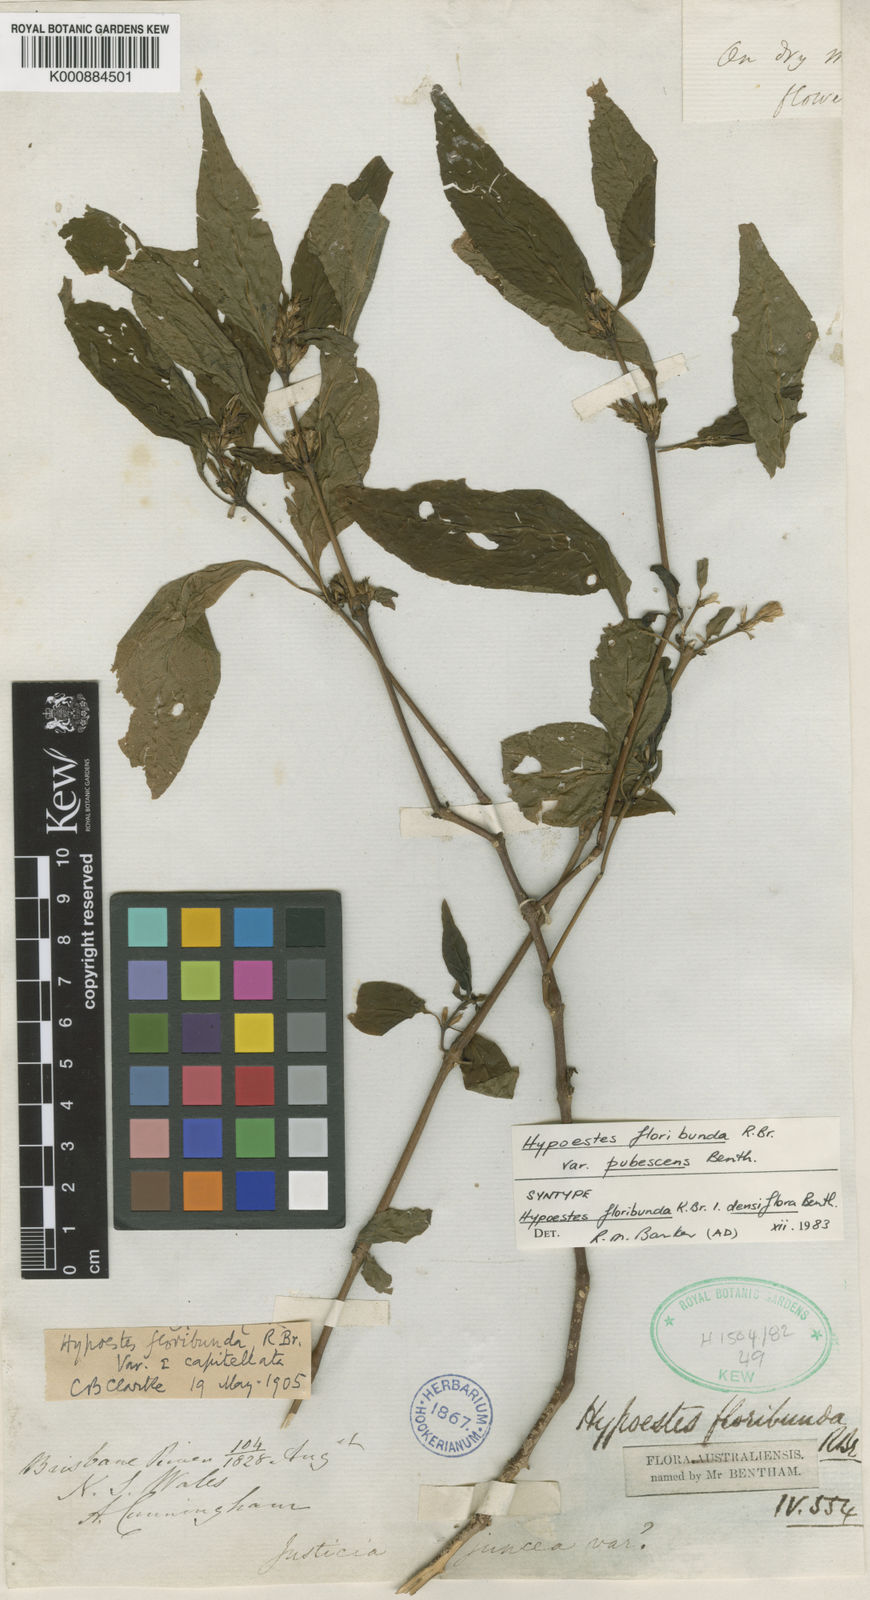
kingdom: Plantae
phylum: Tracheophyta
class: Magnoliopsida
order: Lamiales
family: Acanthaceae
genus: Hypoestes
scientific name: Hypoestes floribunda
